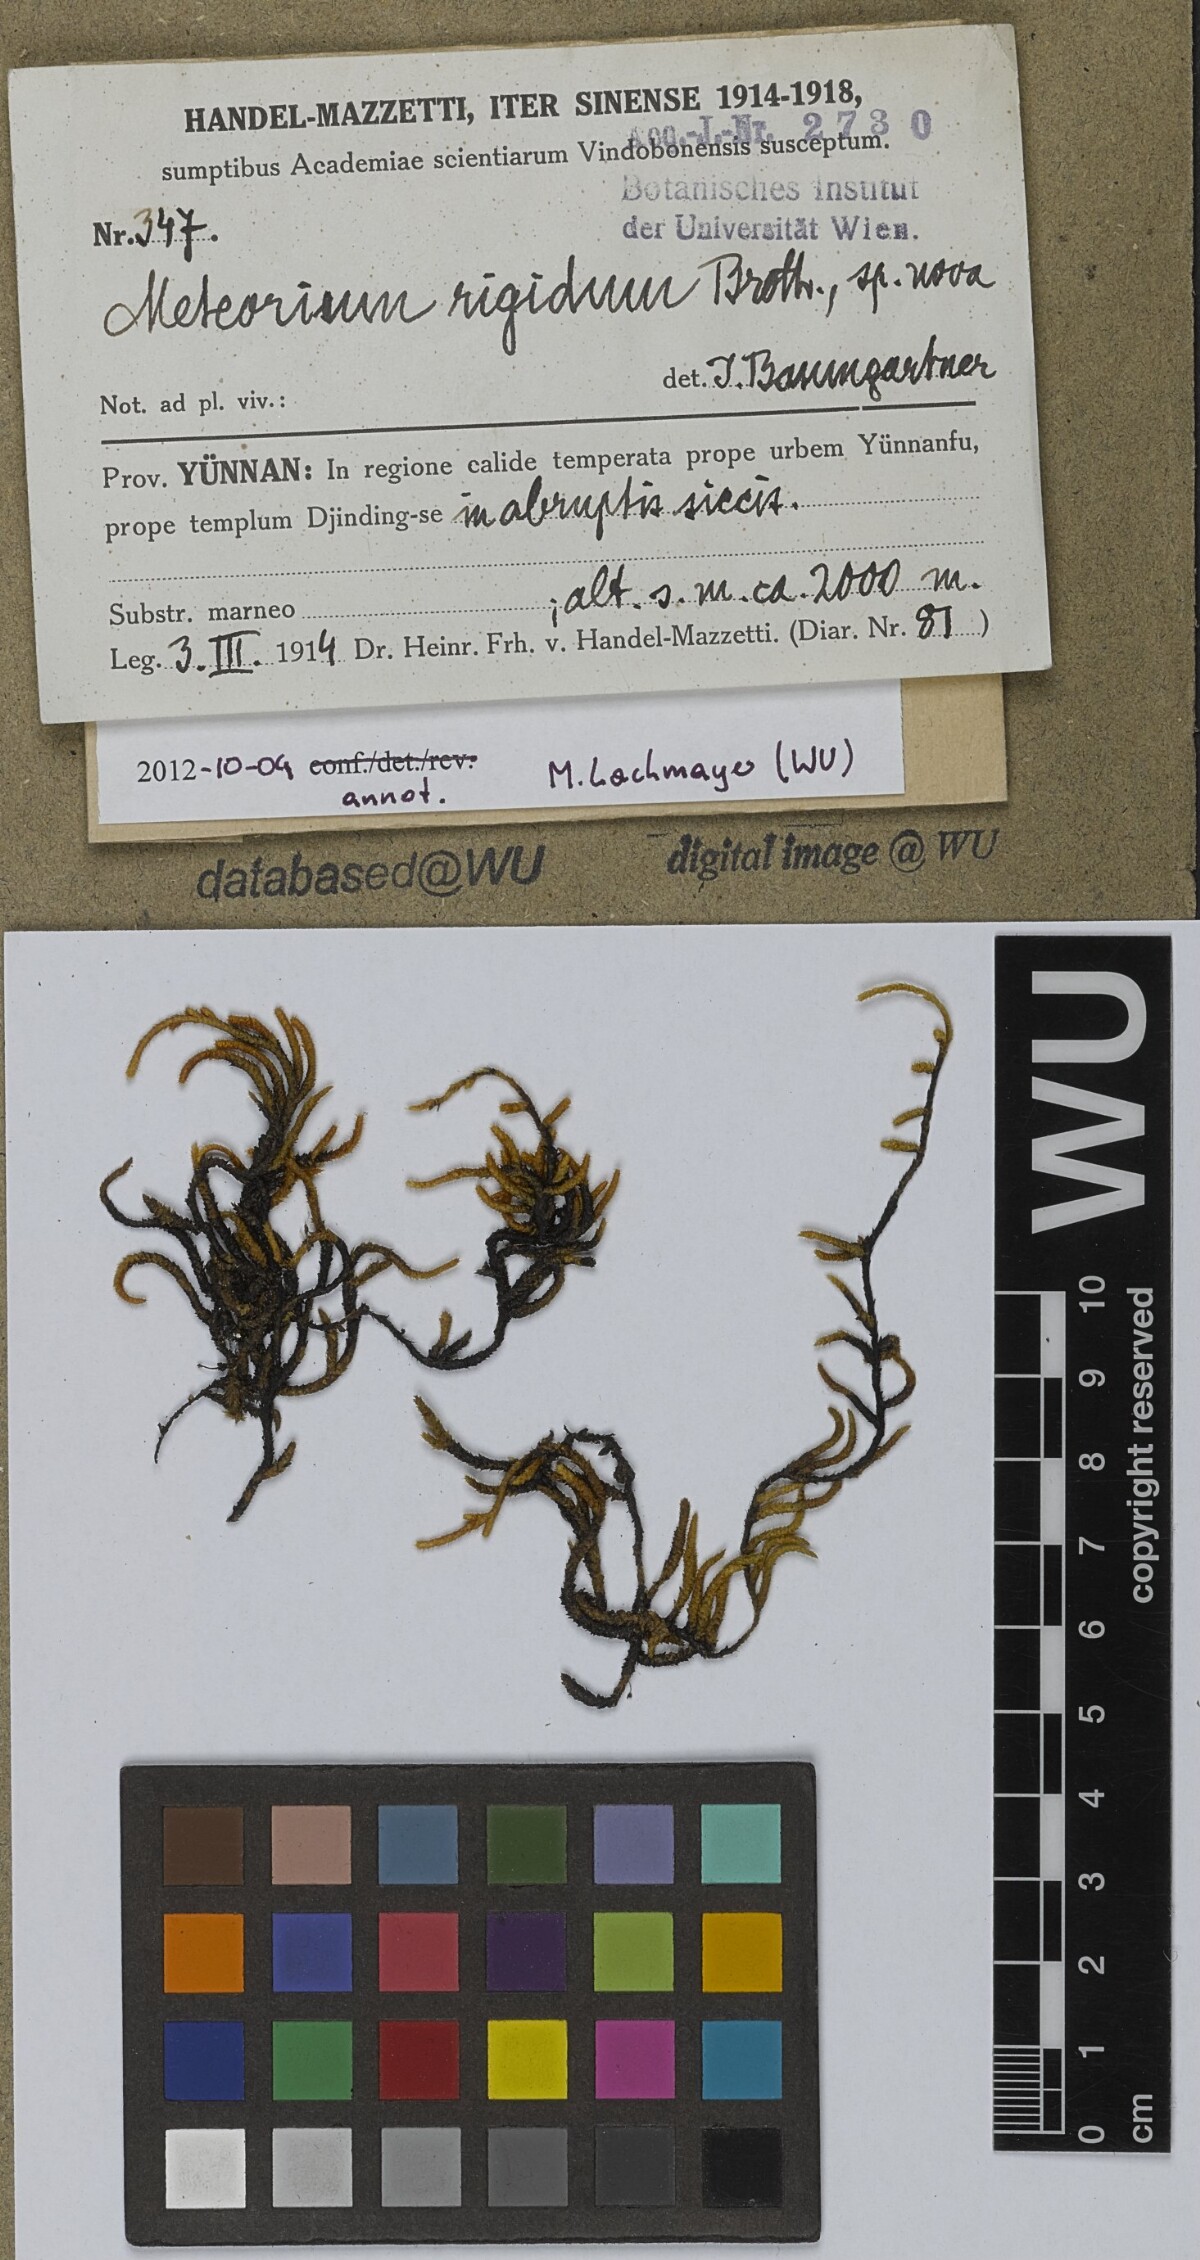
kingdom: Plantae
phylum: Bryophyta
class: Bryopsida
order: Hypnales
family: Meteoriaceae
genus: Meteorium
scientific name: Meteorium buchananii
